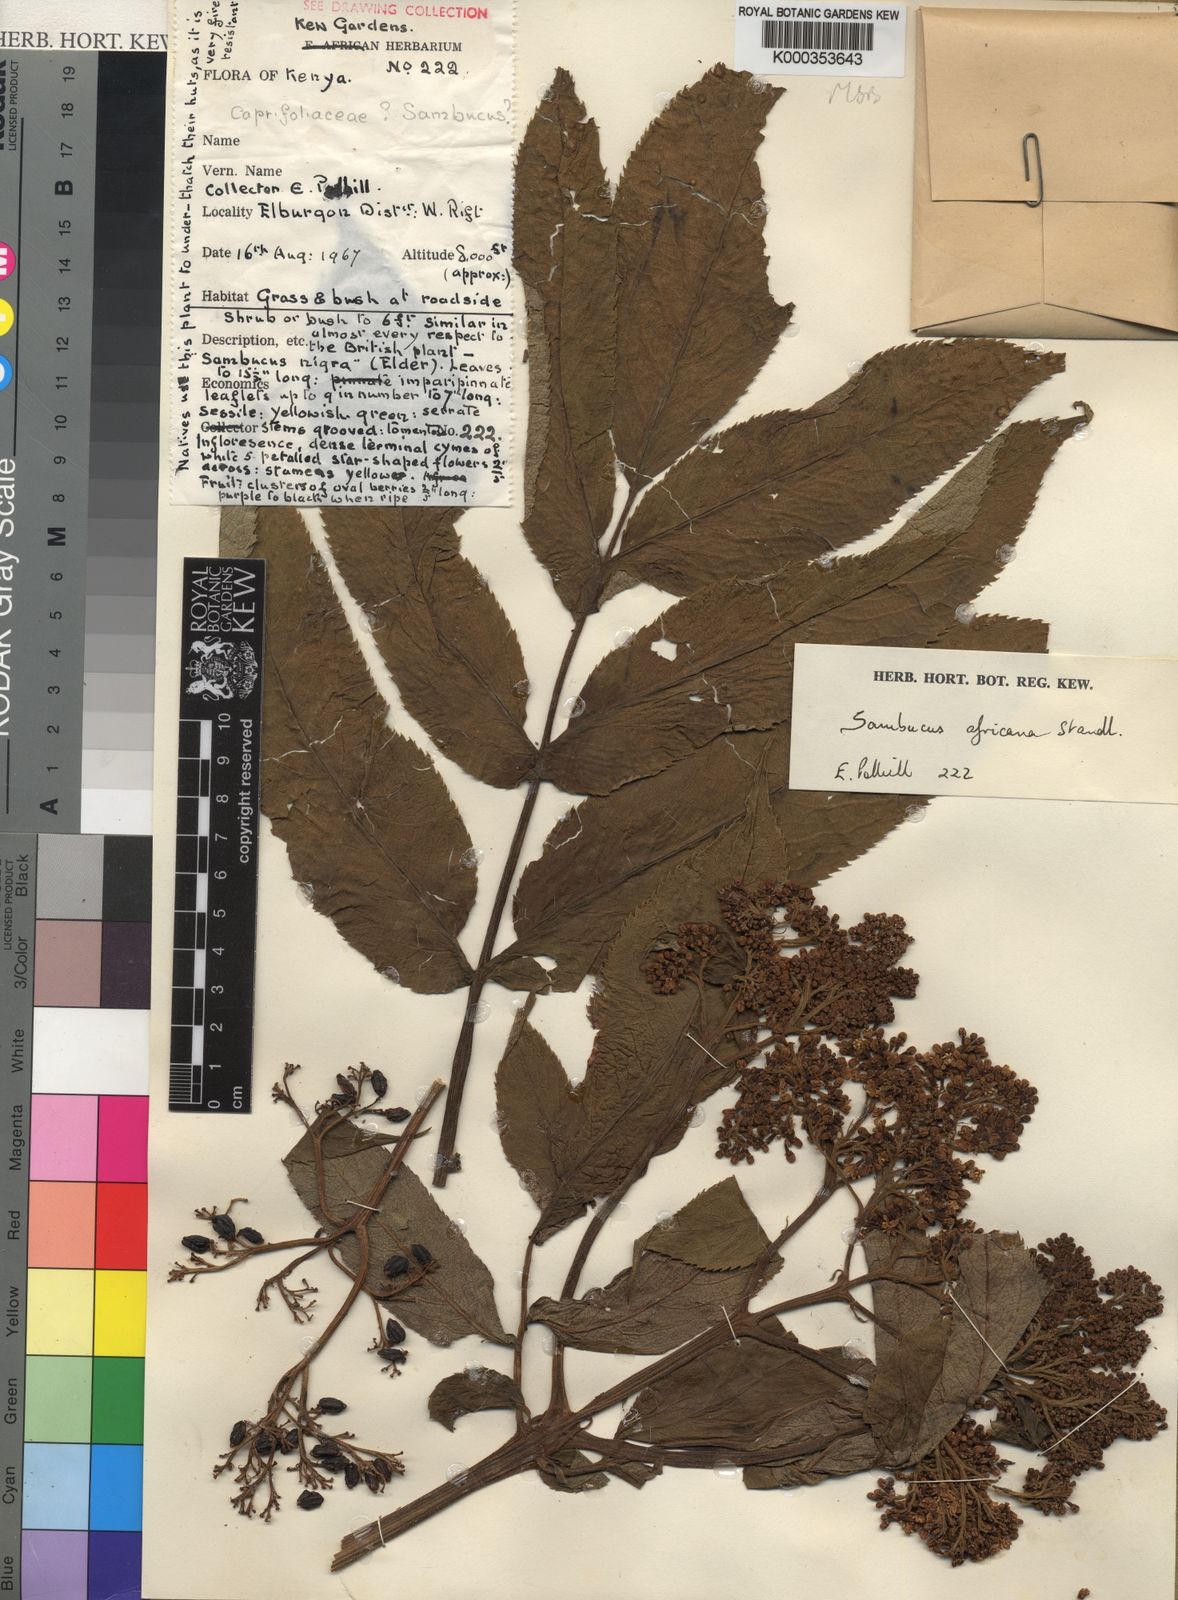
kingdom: Plantae
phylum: Tracheophyta
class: Magnoliopsida
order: Dipsacales
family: Viburnaceae
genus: Sambucus
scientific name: Sambucus africana
